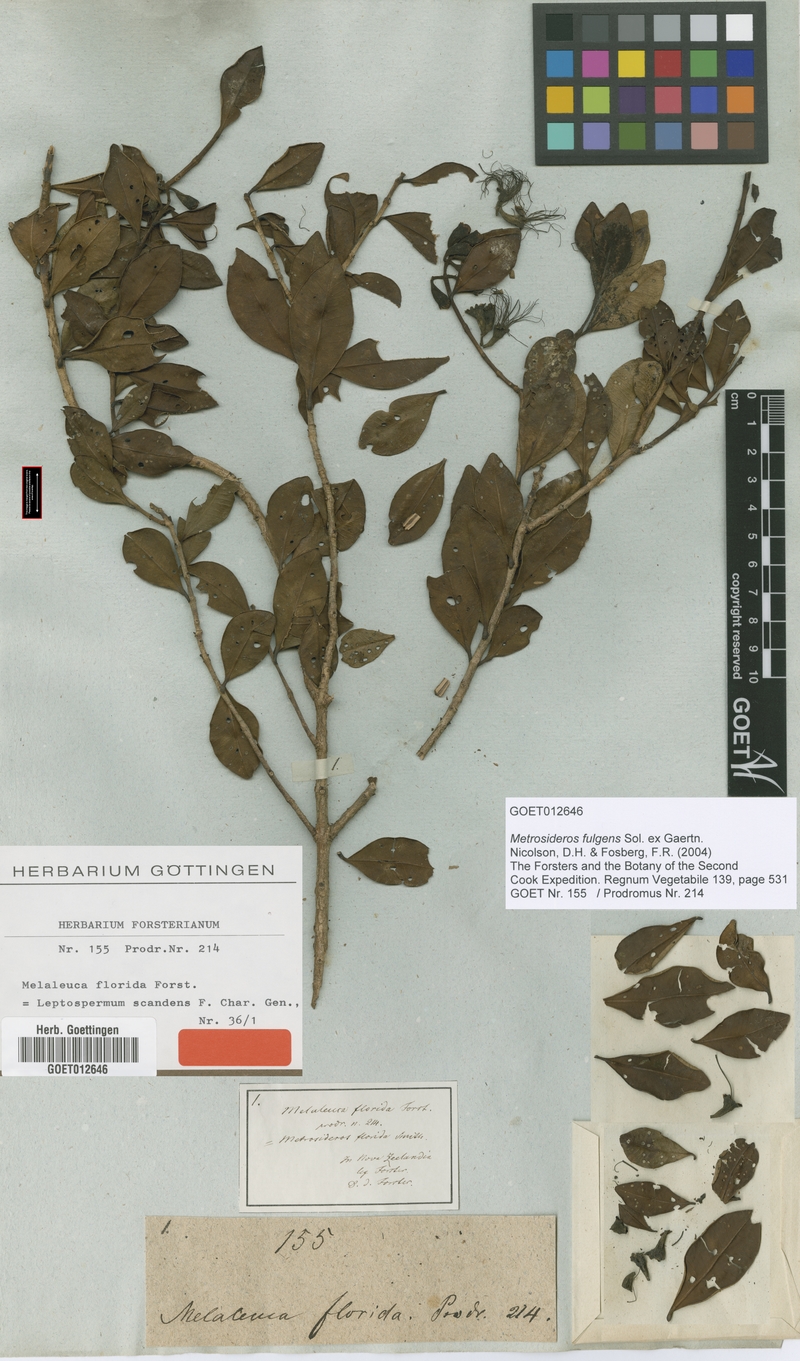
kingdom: Plantae
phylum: Tracheophyta
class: Magnoliopsida
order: Myrtales
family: Myrtaceae
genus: Metrosideros
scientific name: Metrosideros fulgens
